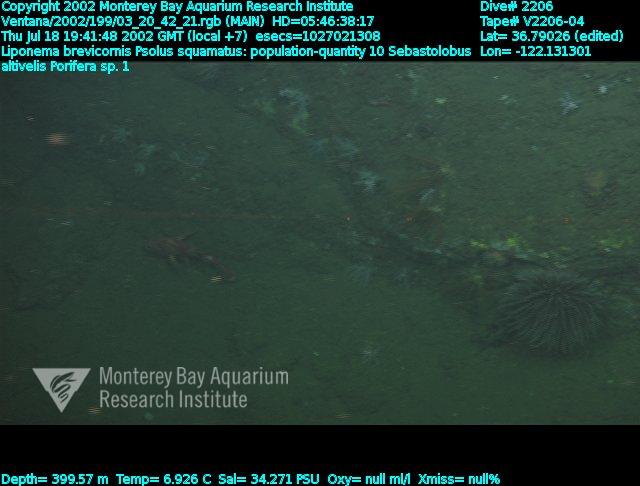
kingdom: Animalia
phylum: Porifera
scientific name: Porifera
